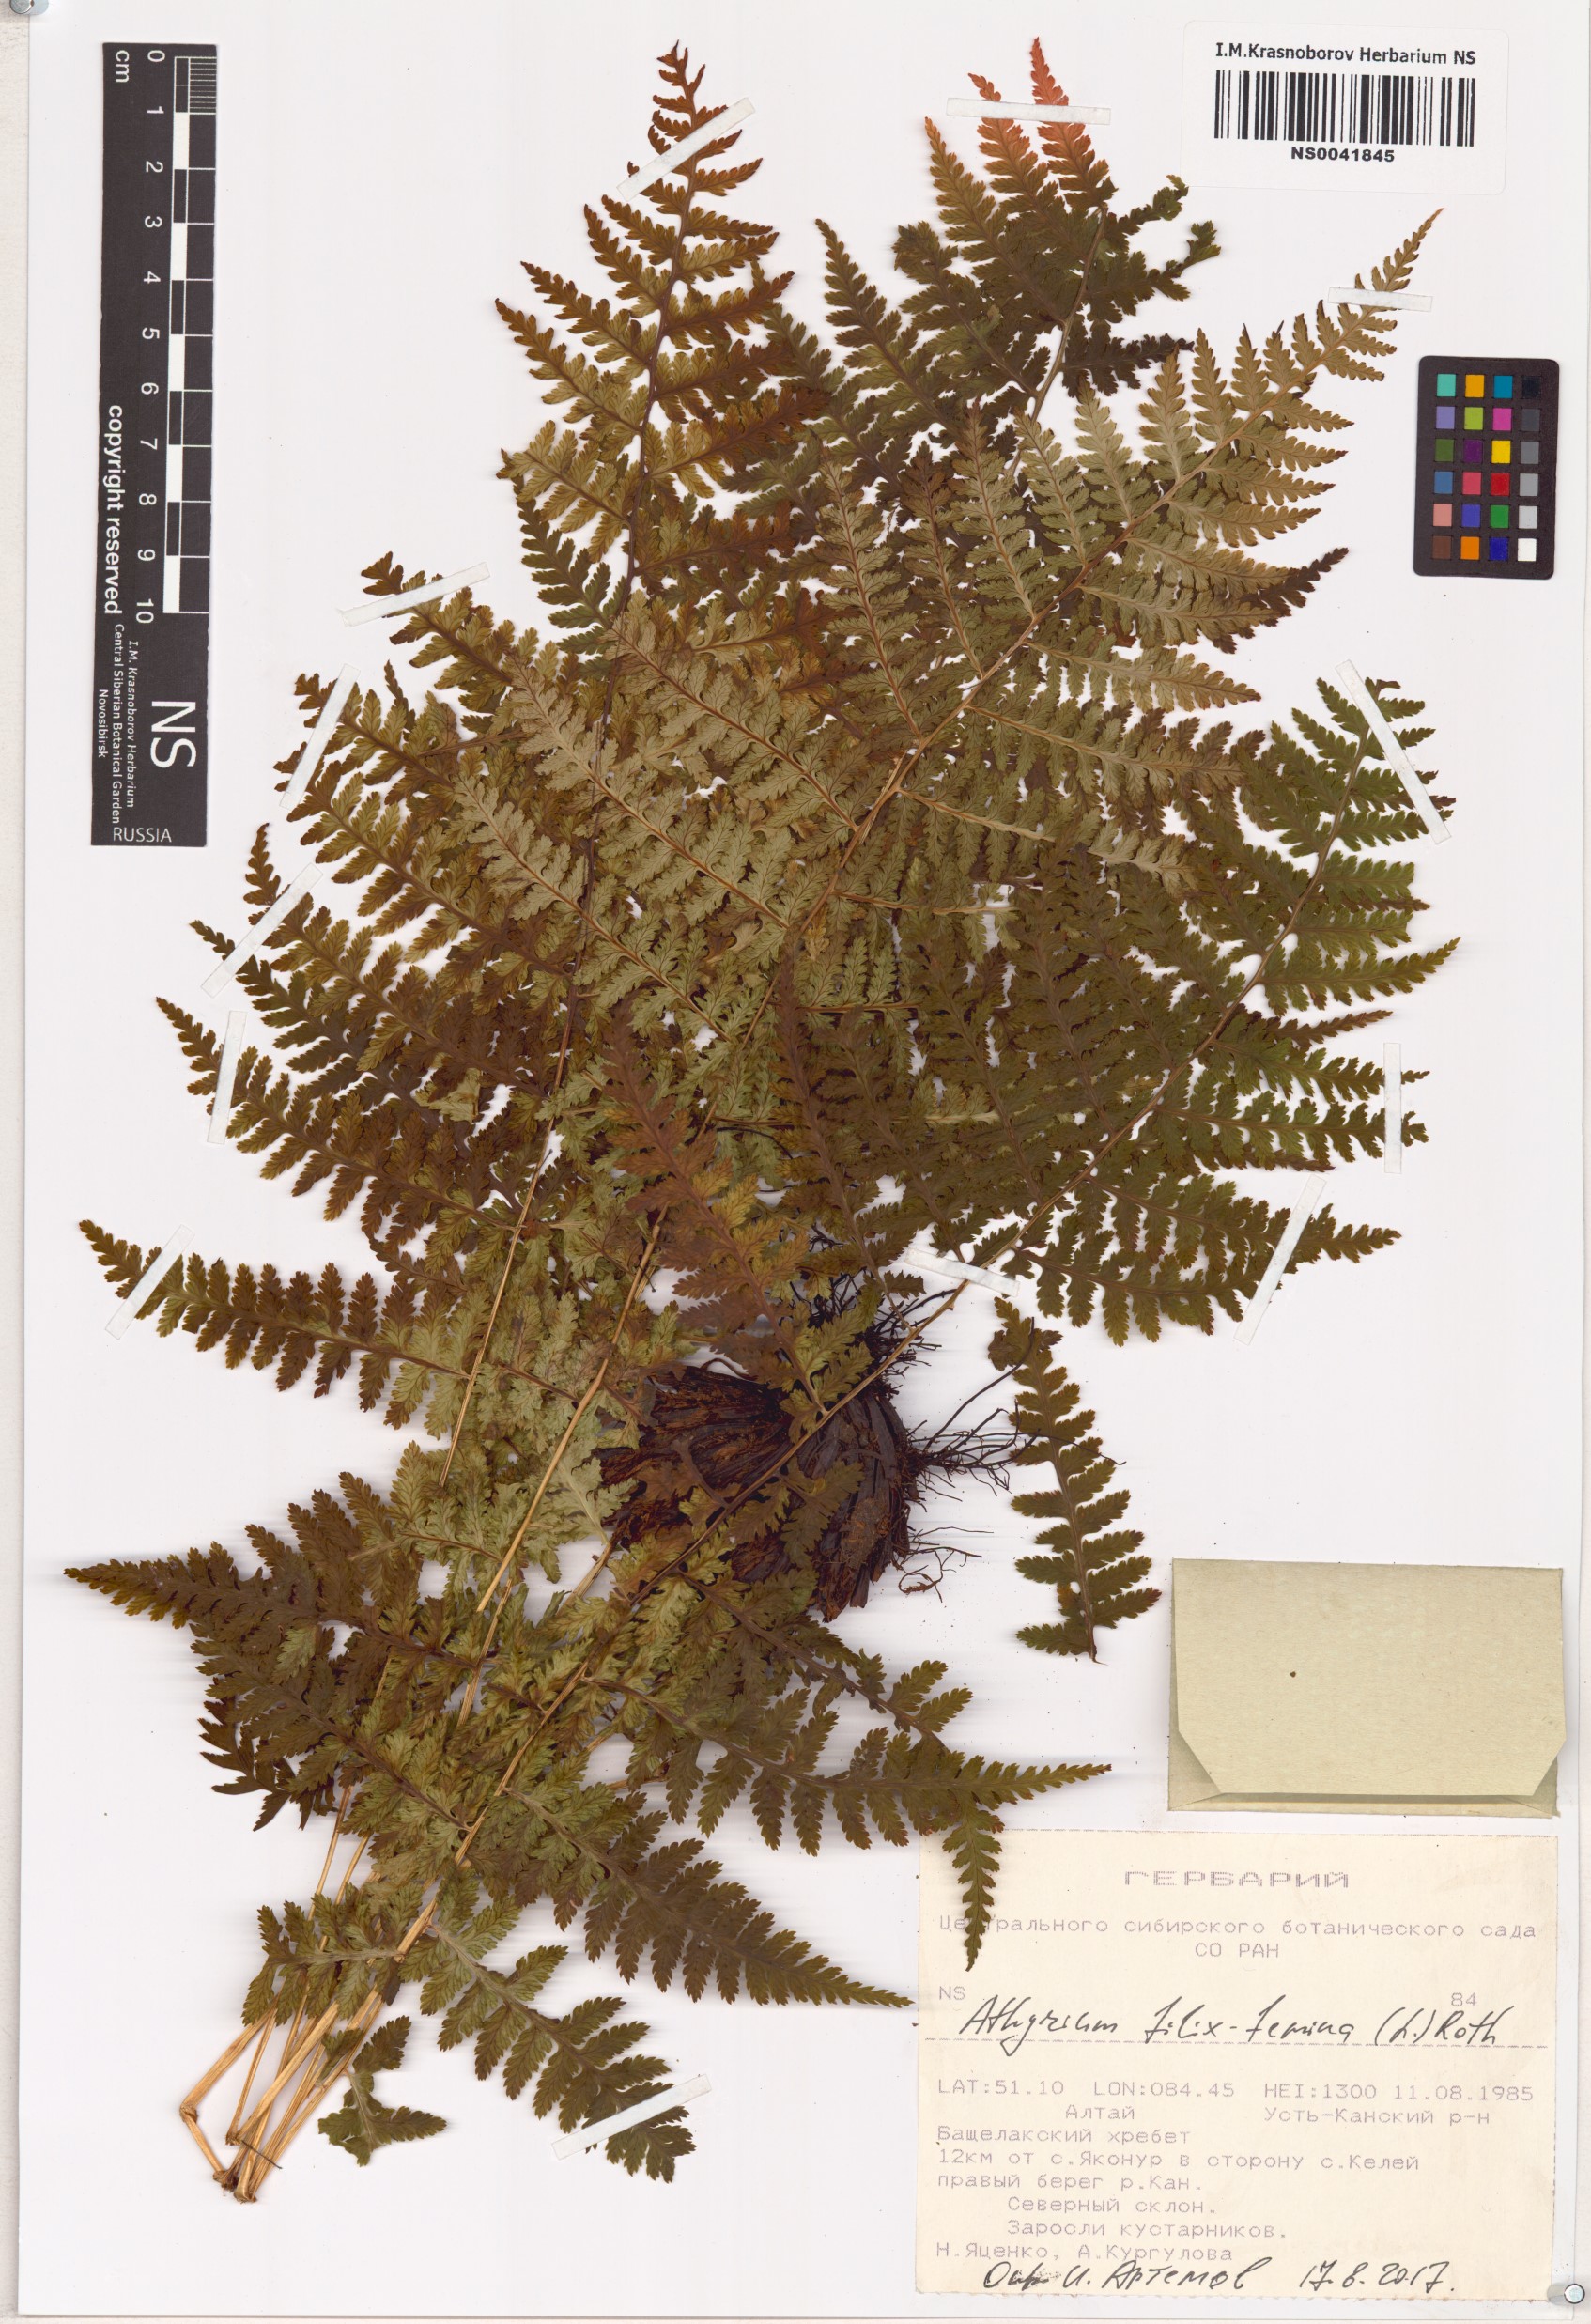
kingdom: Plantae
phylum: Tracheophyta
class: Polypodiopsida
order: Polypodiales
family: Athyriaceae
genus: Athyrium
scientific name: Athyrium filix-femina
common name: Lady fern
